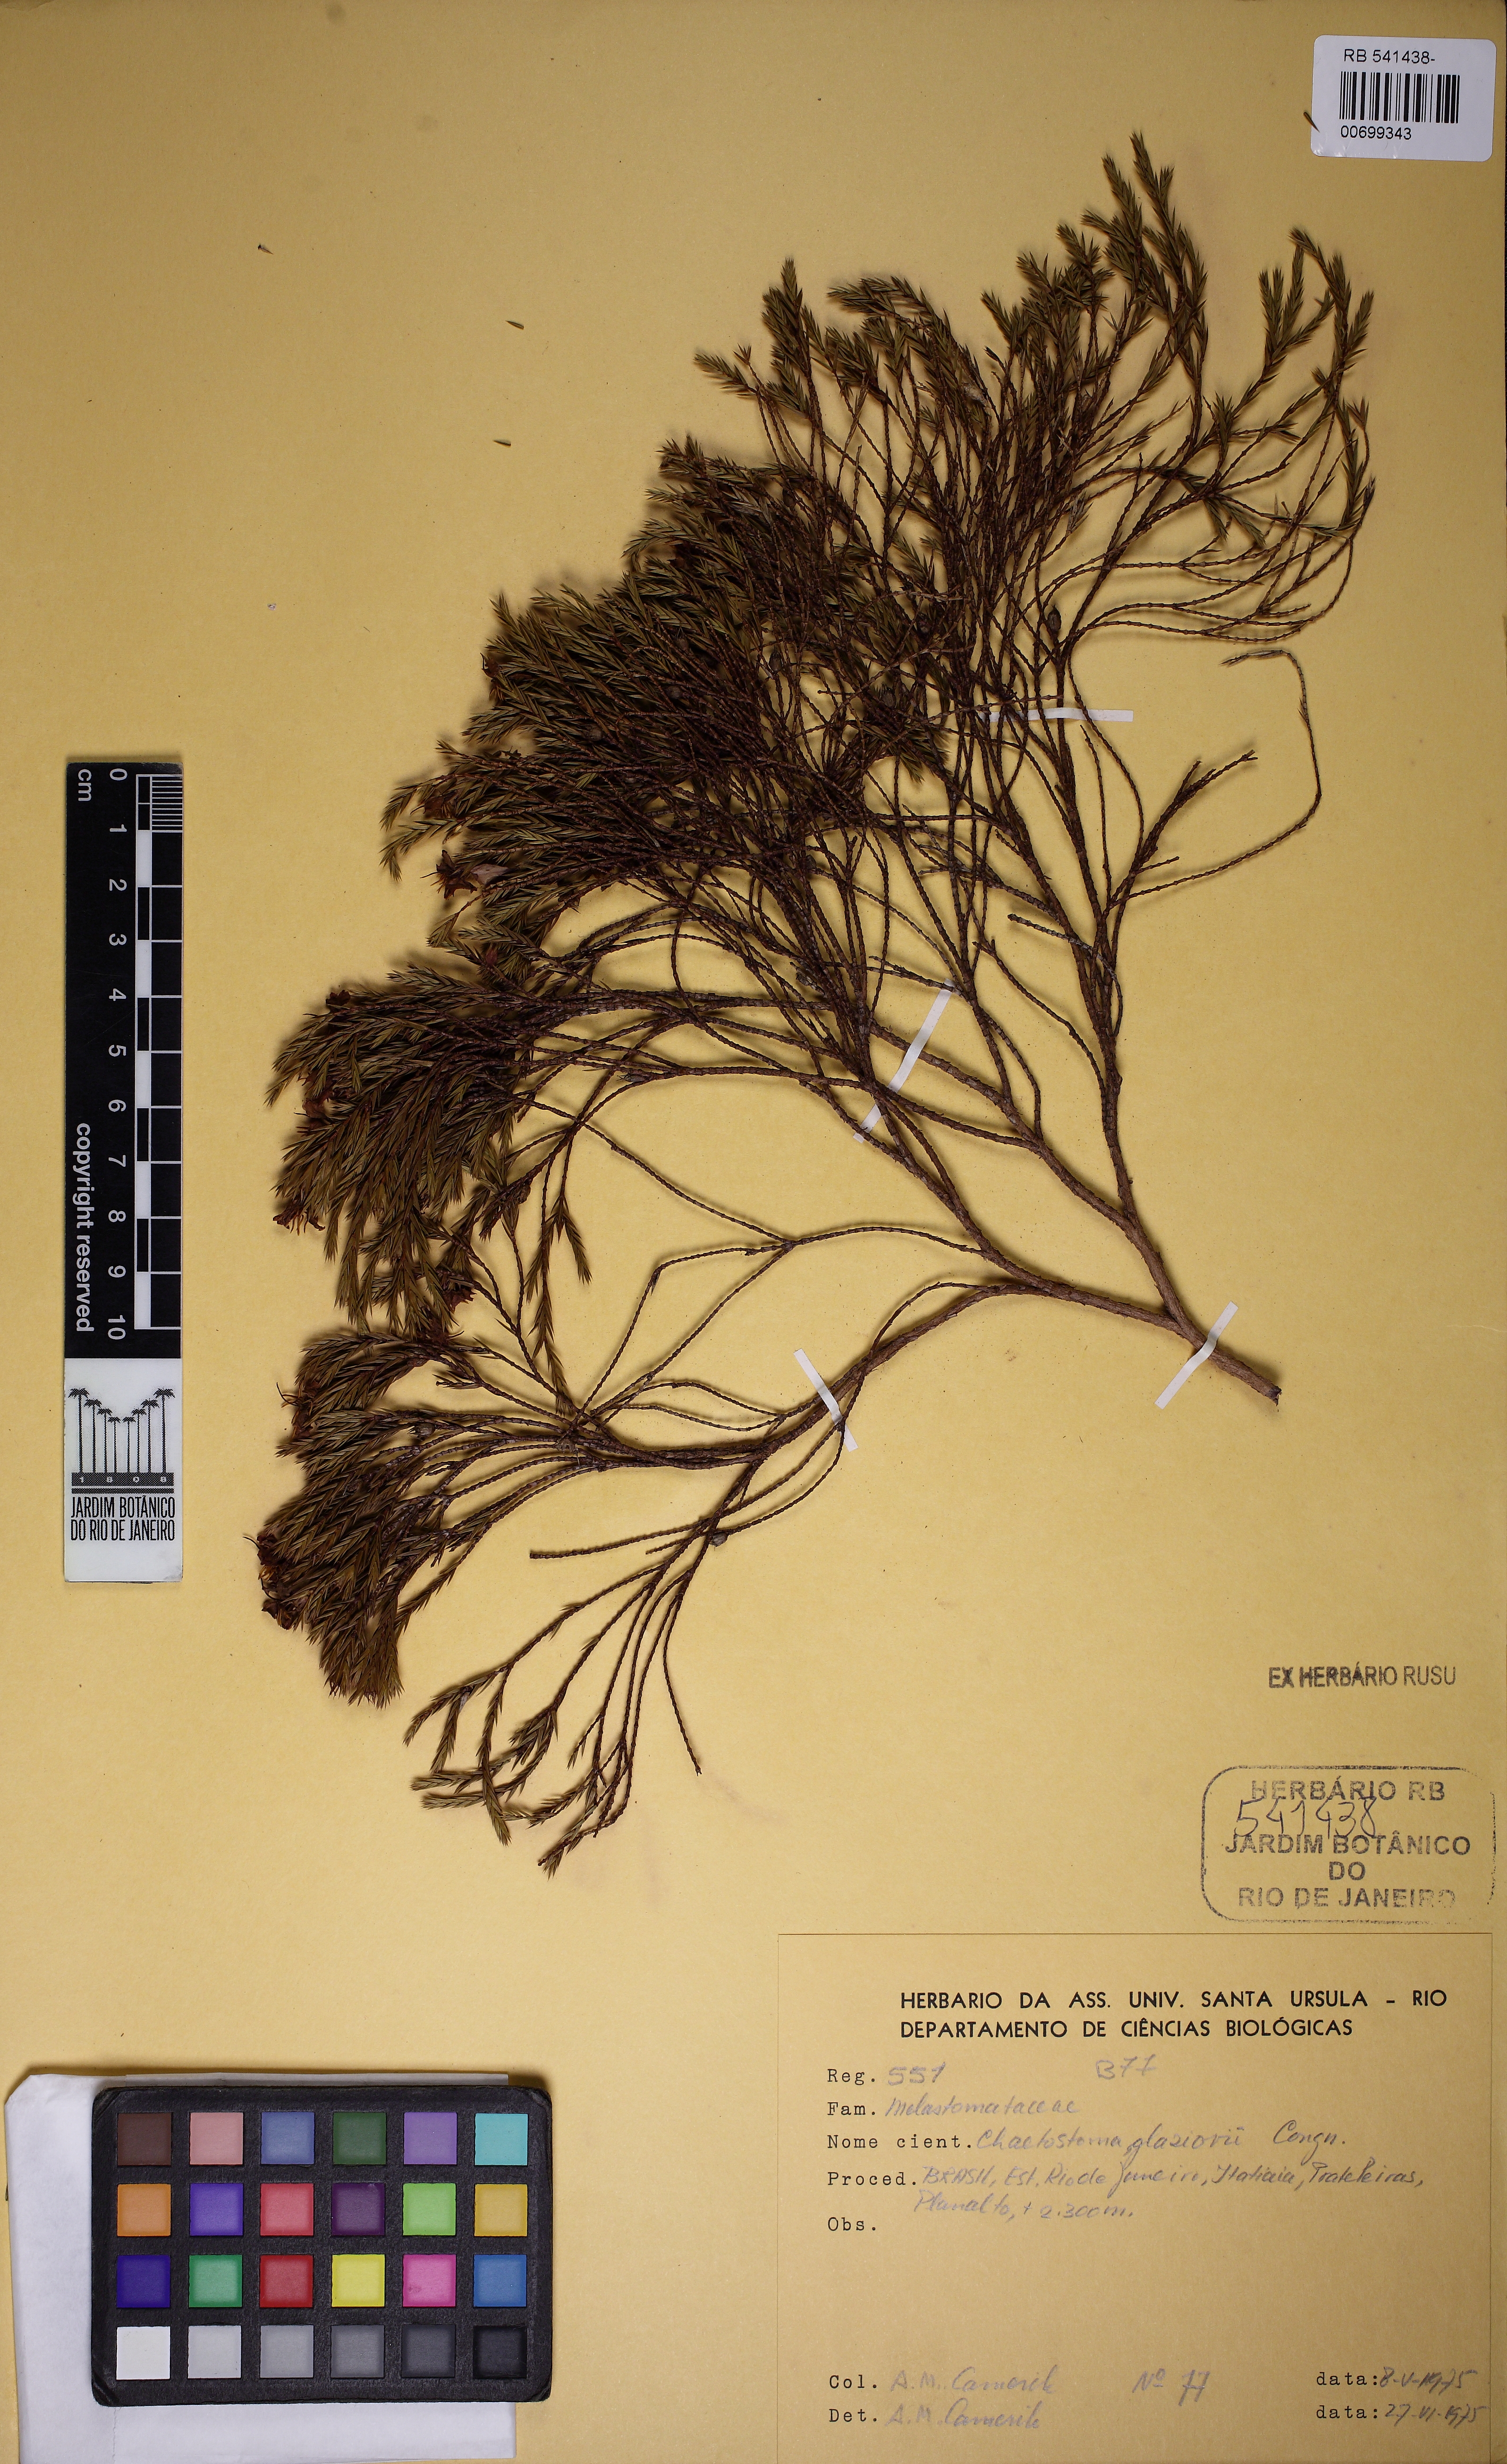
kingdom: Plantae
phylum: Tracheophyta
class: Magnoliopsida
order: Myrtales
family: Melastomataceae
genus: Microlicia
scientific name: Microlicia glaziovii
